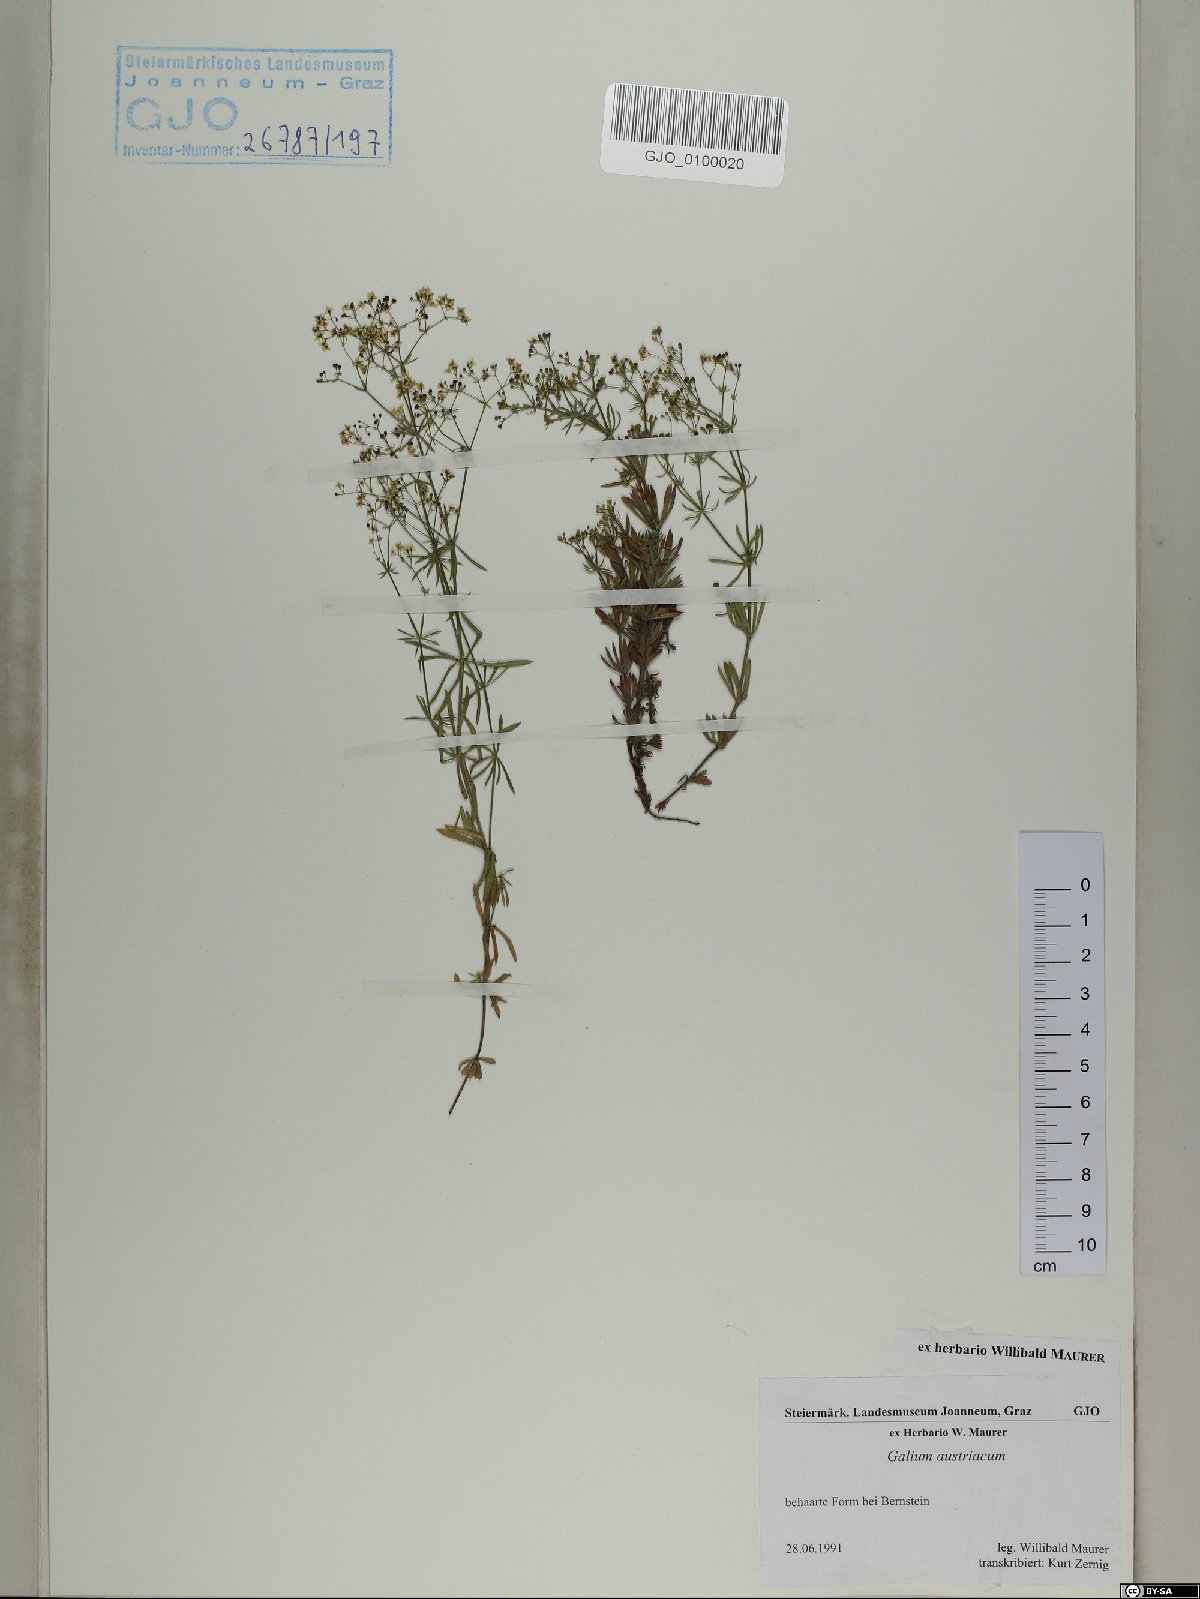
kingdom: Plantae
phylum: Tracheophyta
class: Magnoliopsida
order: Gentianales
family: Rubiaceae
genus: Galium
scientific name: Galium austriacum
